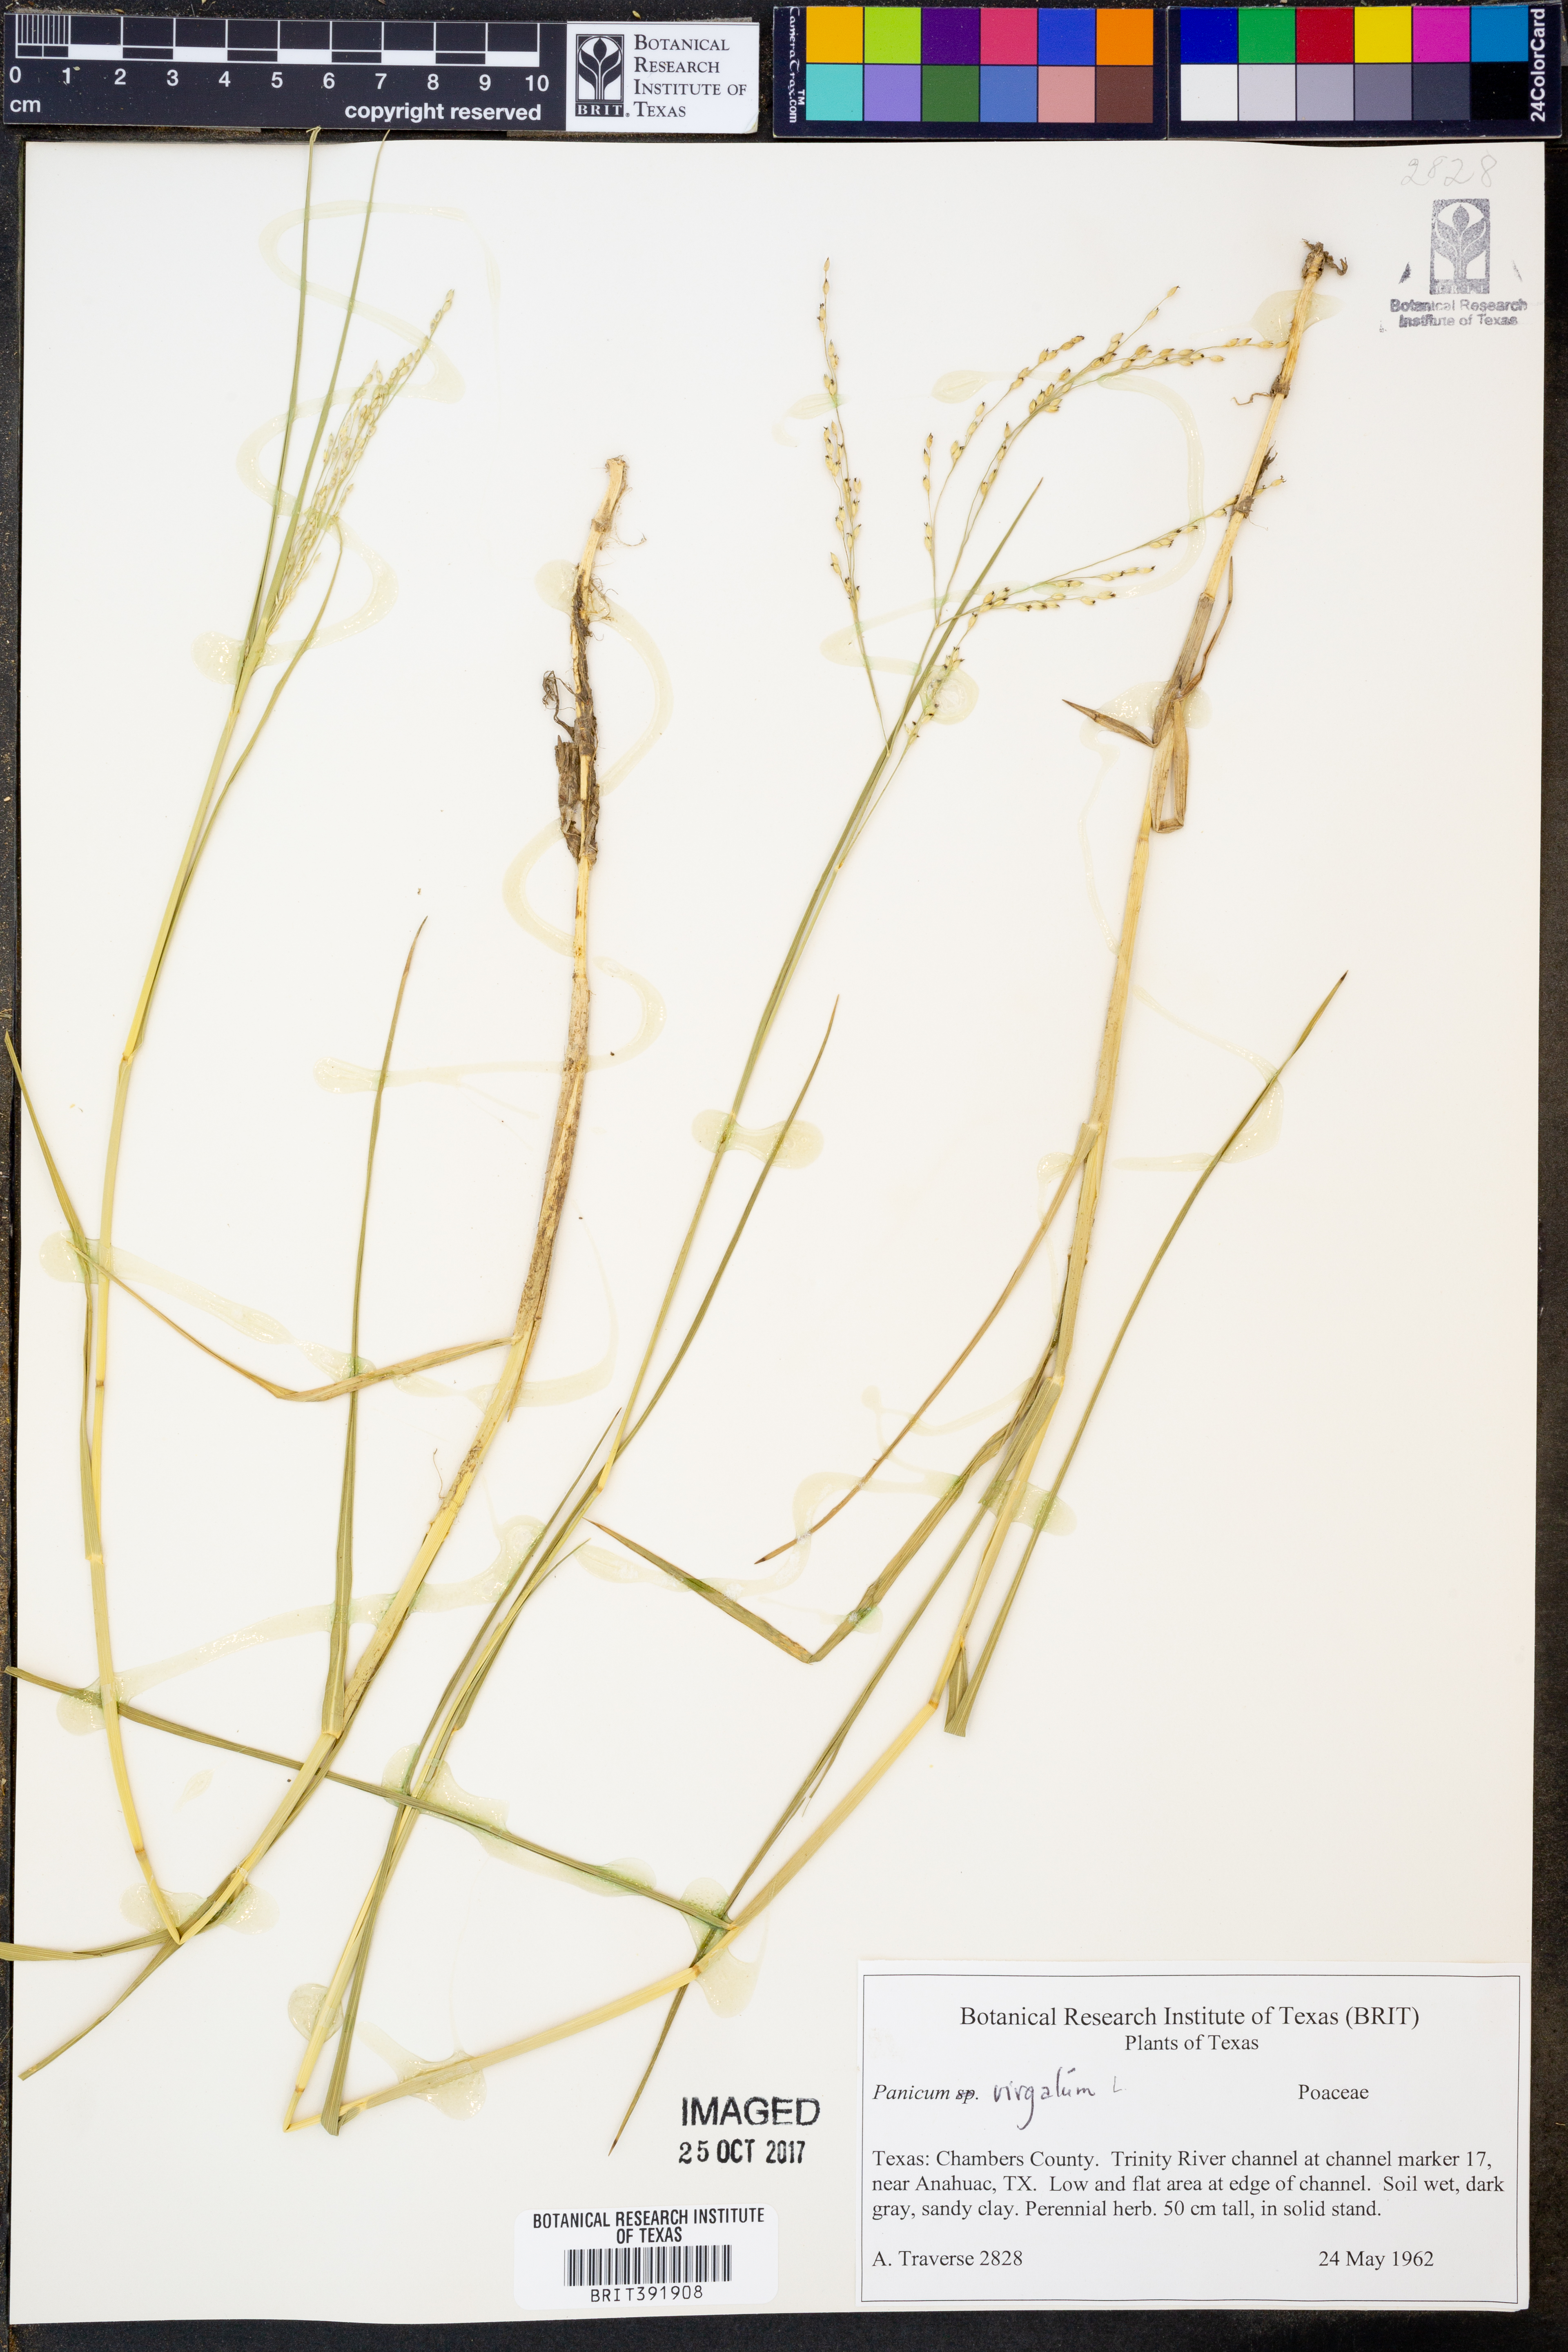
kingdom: Plantae
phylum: Tracheophyta
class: Liliopsida
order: Poales
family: Poaceae
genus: Panicum
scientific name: Panicum virgatum
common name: Switchgrass
